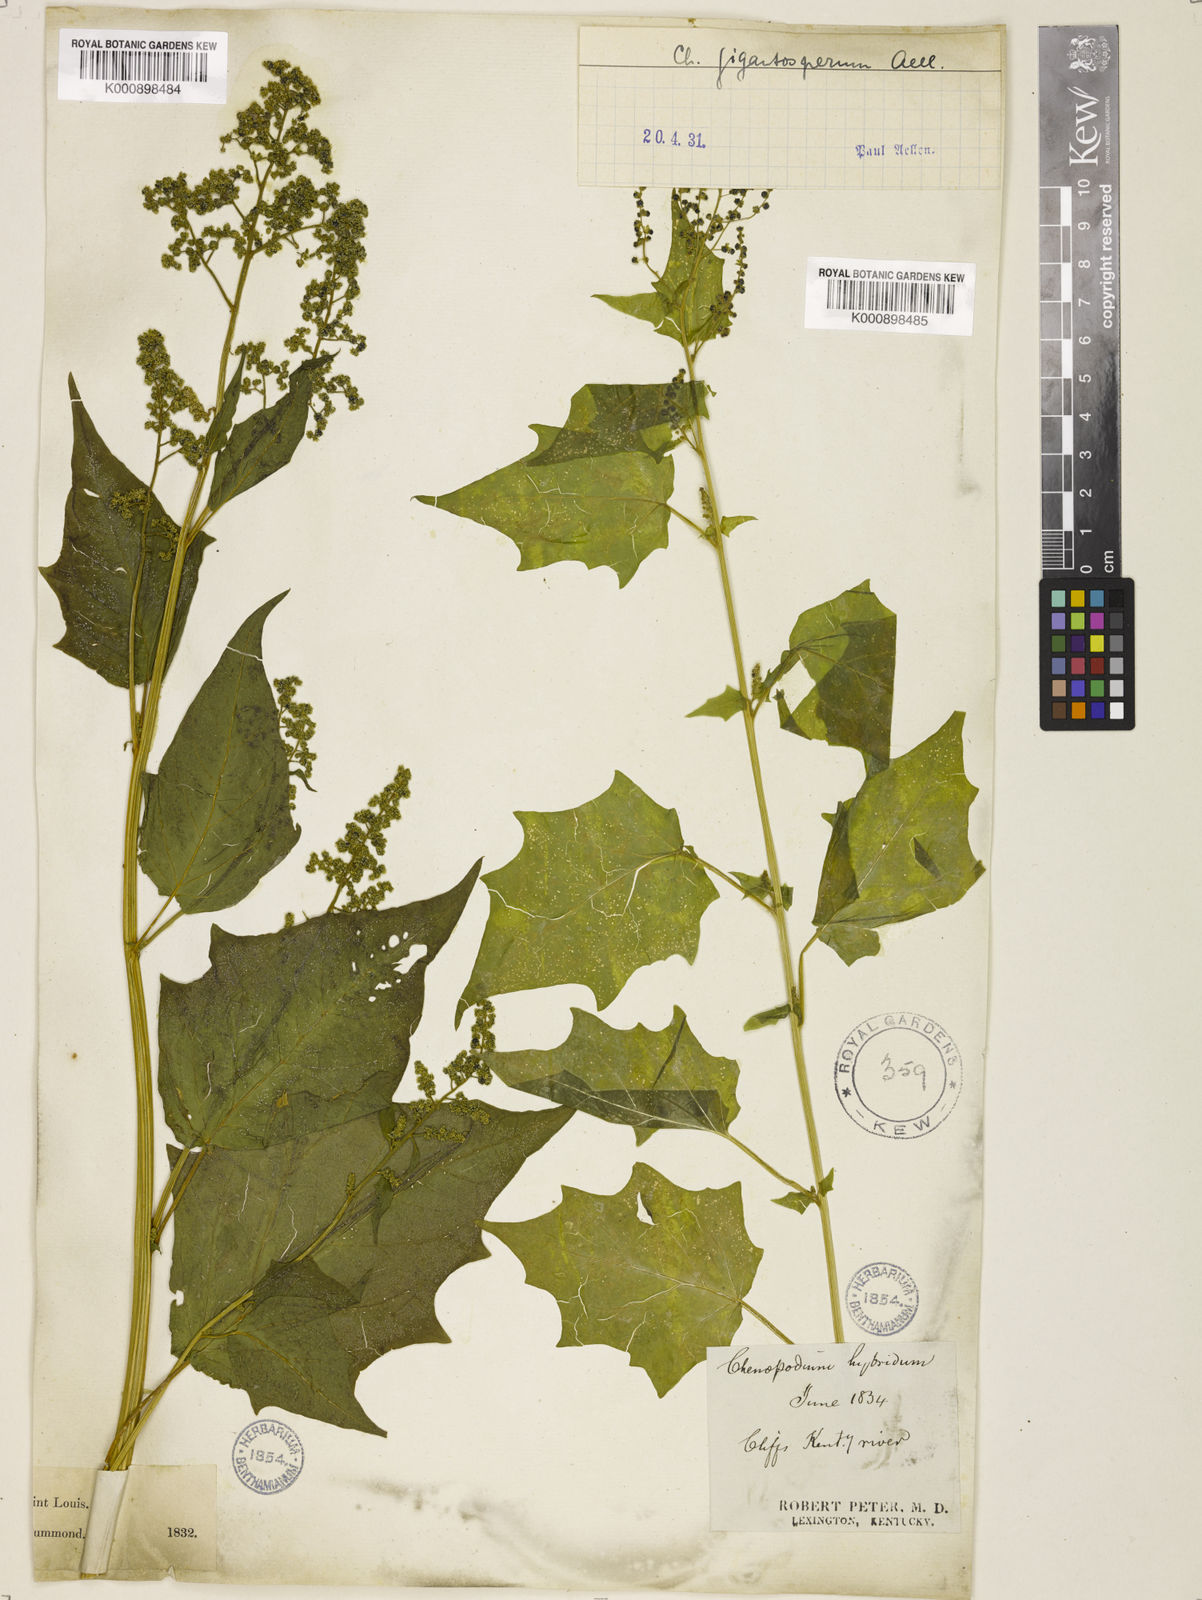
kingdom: Plantae
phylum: Tracheophyta
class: Magnoliopsida
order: Caryophyllales
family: Amaranthaceae
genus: Chenopodiastrum
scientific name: Chenopodiastrum simplex
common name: Large-seed goosefoot
